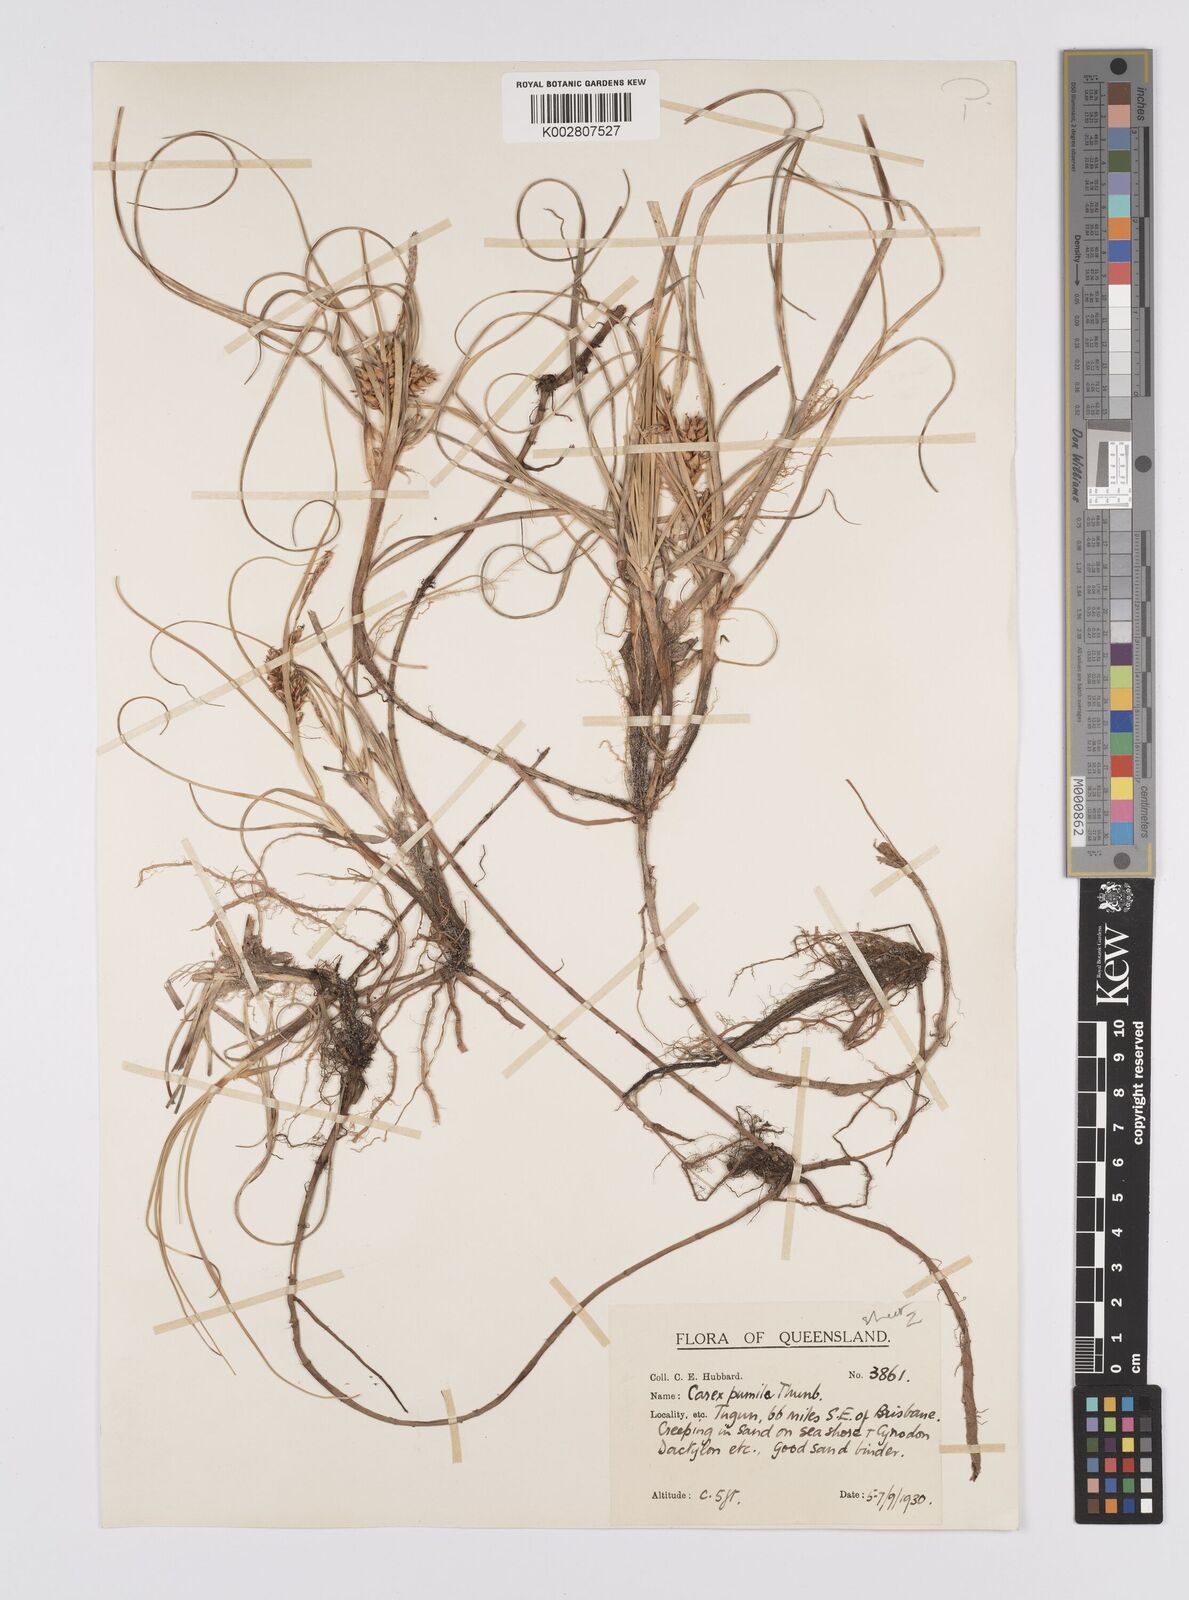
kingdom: Plantae
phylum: Tracheophyta
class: Liliopsida
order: Poales
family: Cyperaceae
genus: Carex
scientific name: Carex pumila
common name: Dwarf sedge
